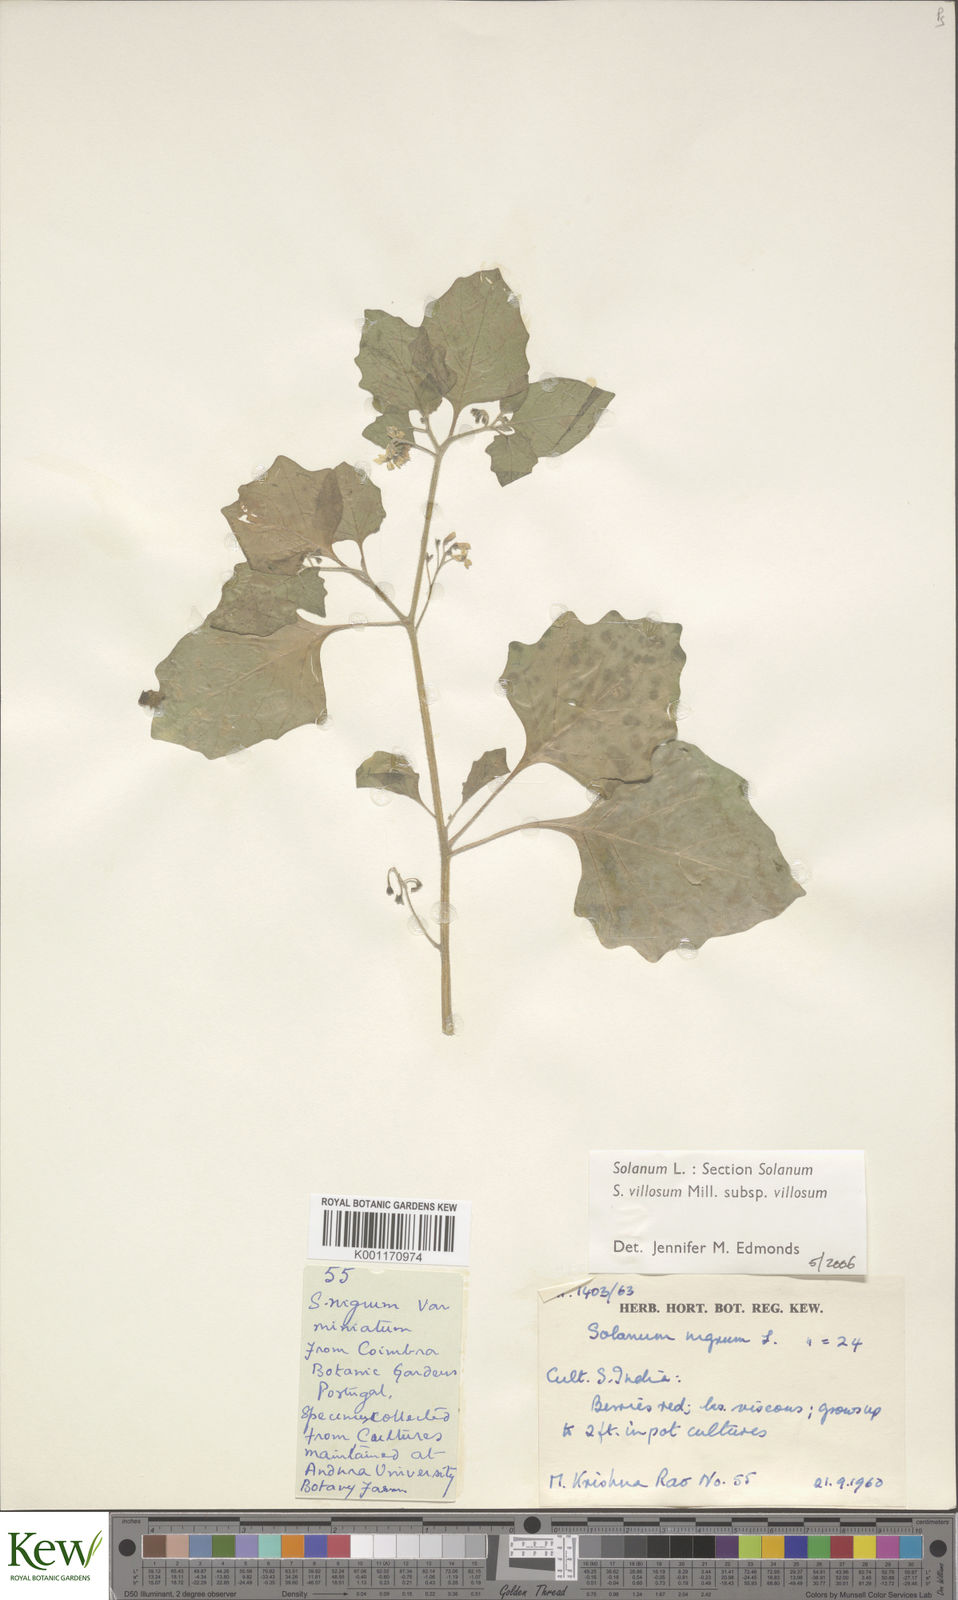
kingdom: Plantae
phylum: Tracheophyta
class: Magnoliopsida
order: Solanales
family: Solanaceae
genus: Solanum
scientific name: Solanum villosum
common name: Red nightshade
